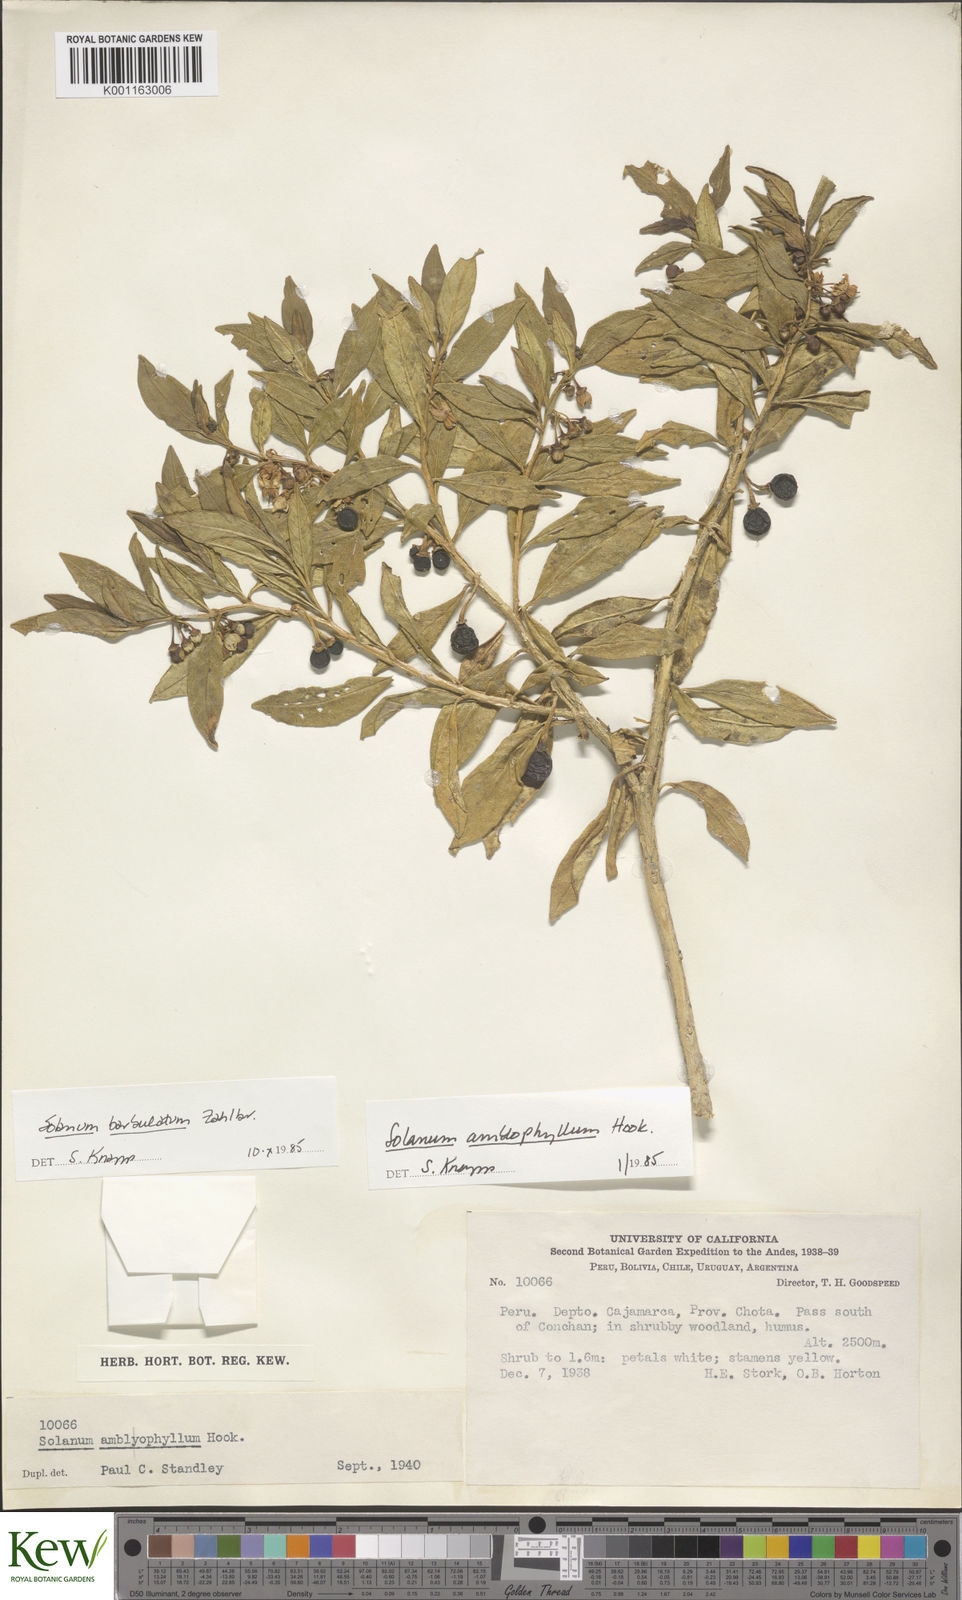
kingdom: Plantae
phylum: Tracheophyta
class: Magnoliopsida
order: Solanales
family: Solanaceae
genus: Solanum
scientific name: Solanum barbulatum
